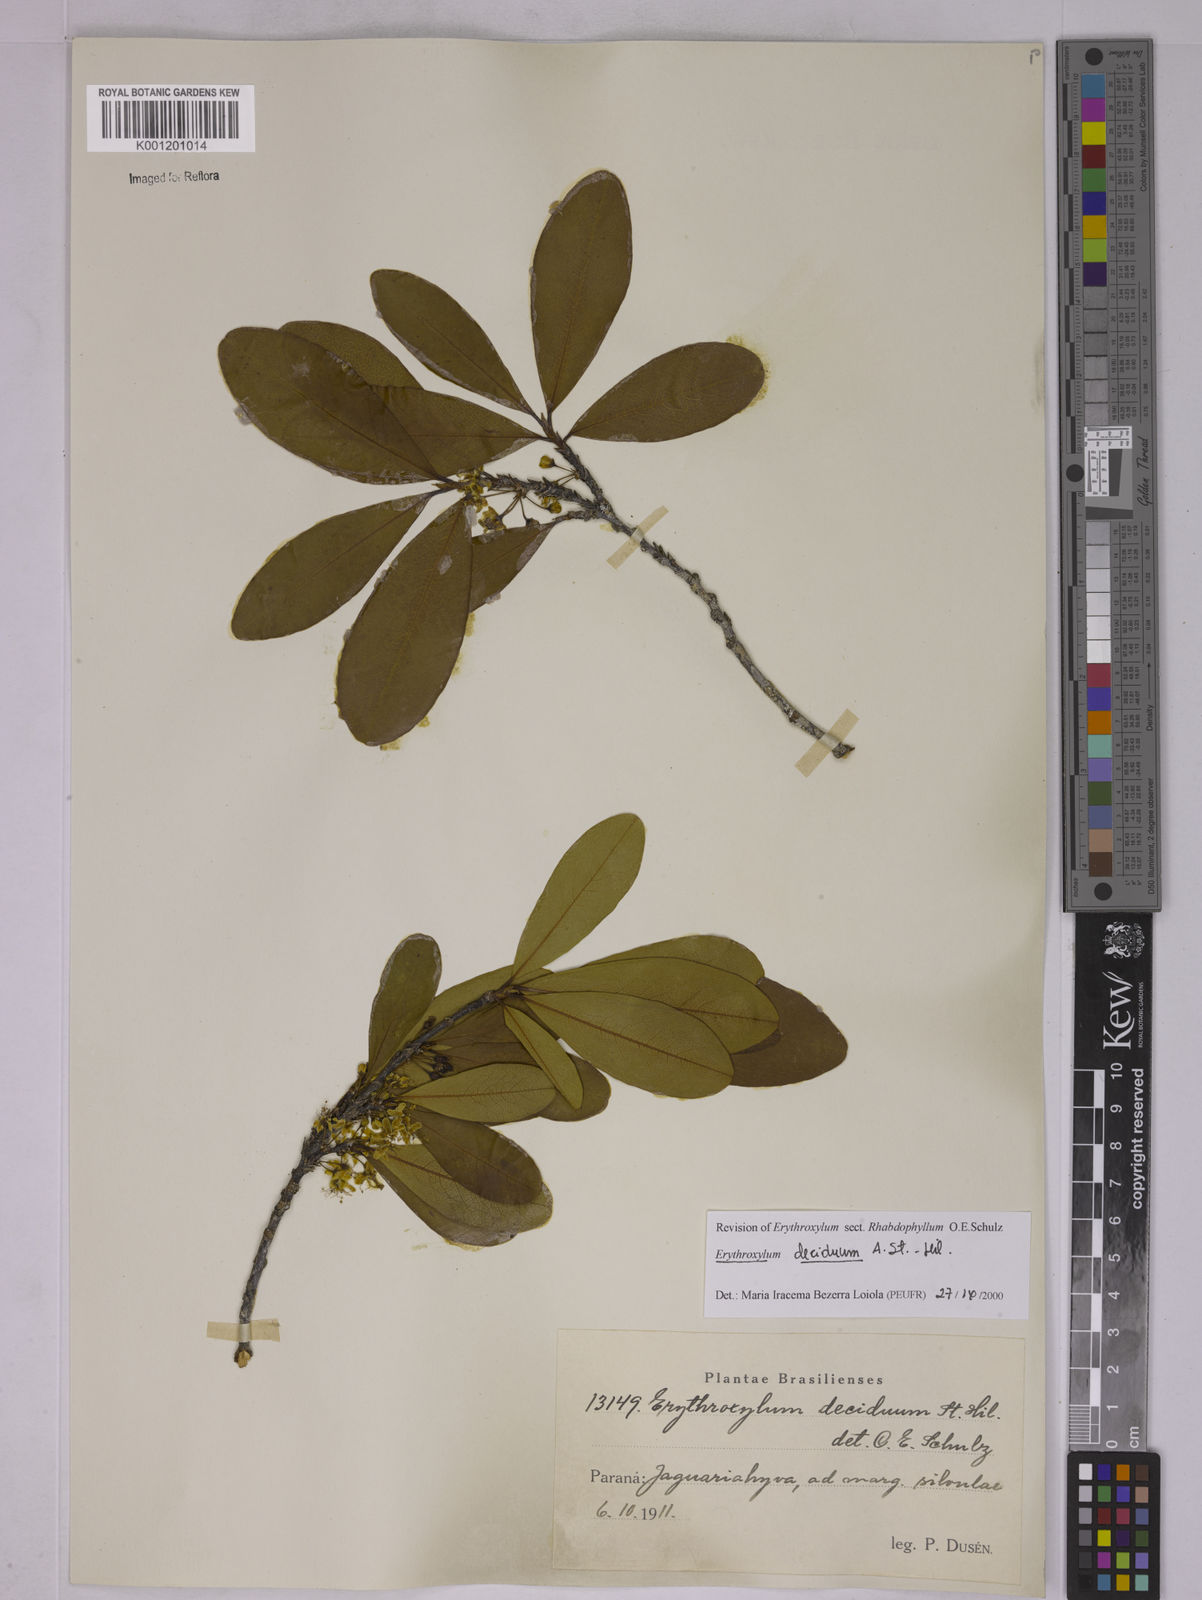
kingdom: Plantae
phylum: Tracheophyta
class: Magnoliopsida
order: Malpighiales
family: Erythroxylaceae
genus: Erythroxylum
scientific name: Erythroxylum deciduum
